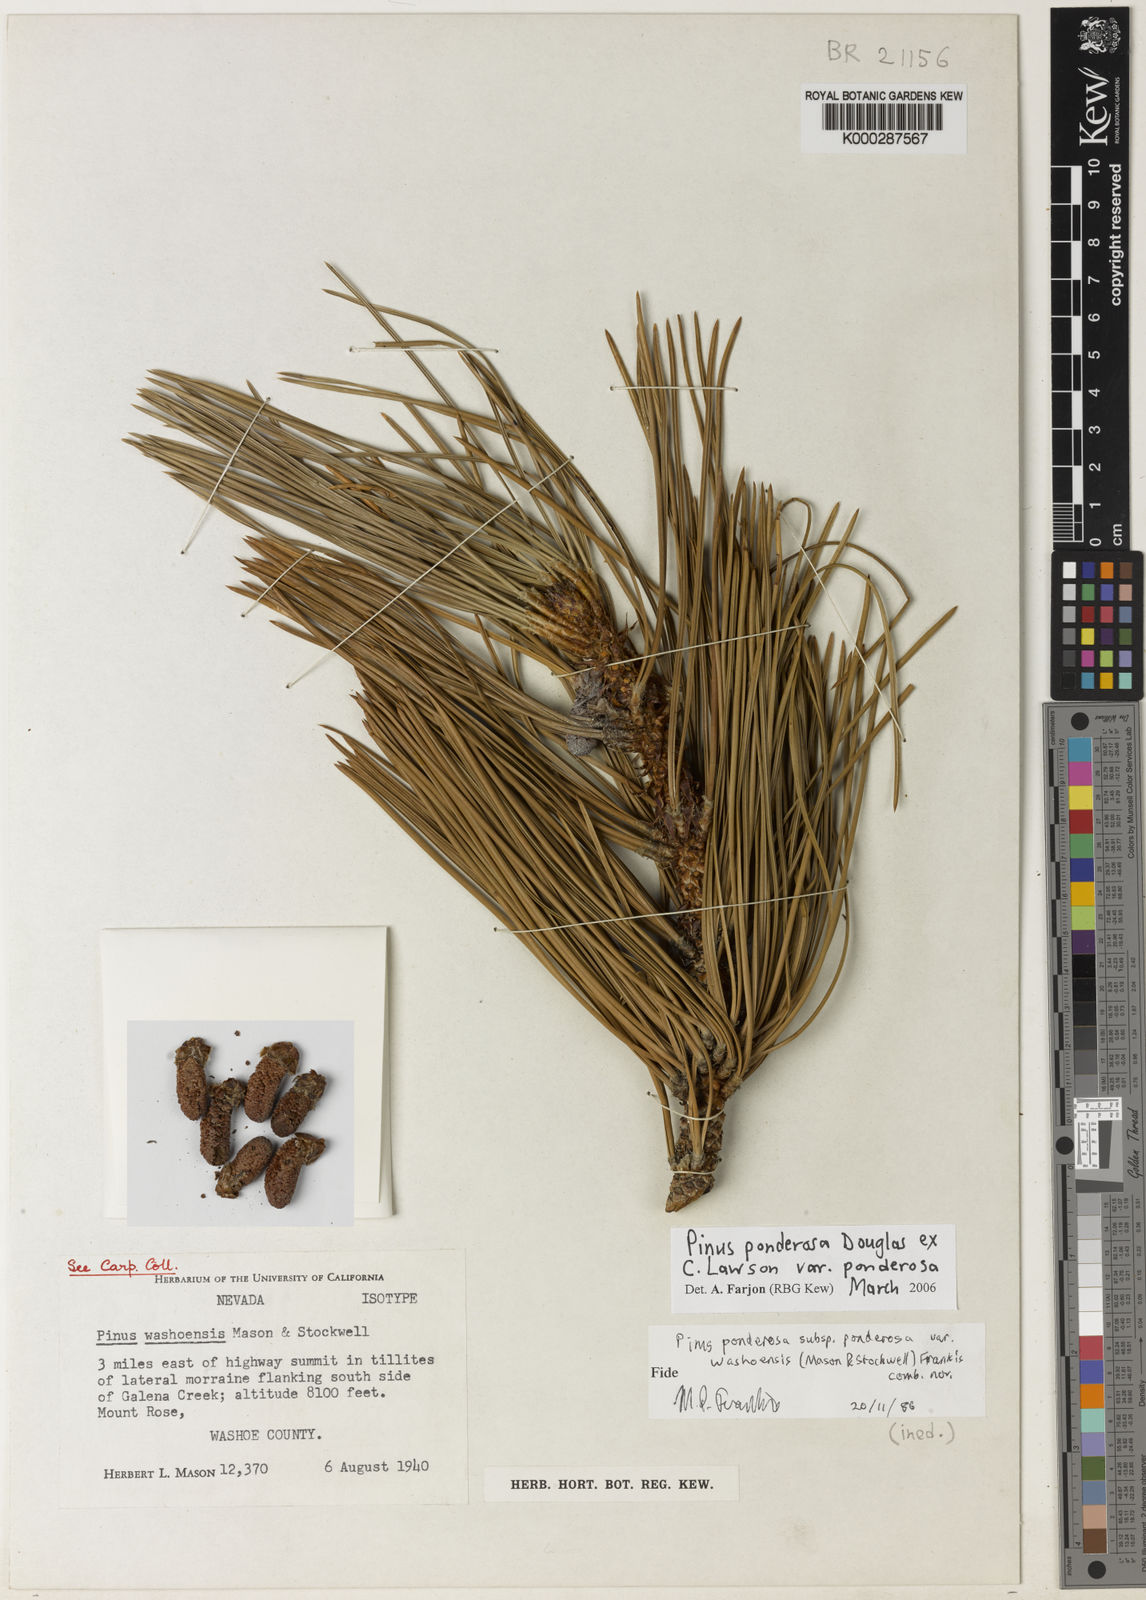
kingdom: Plantae
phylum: Tracheophyta
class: Pinopsida
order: Pinales
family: Pinaceae
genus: Pinus
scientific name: Pinus ponderosa
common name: Western yellow-pine
